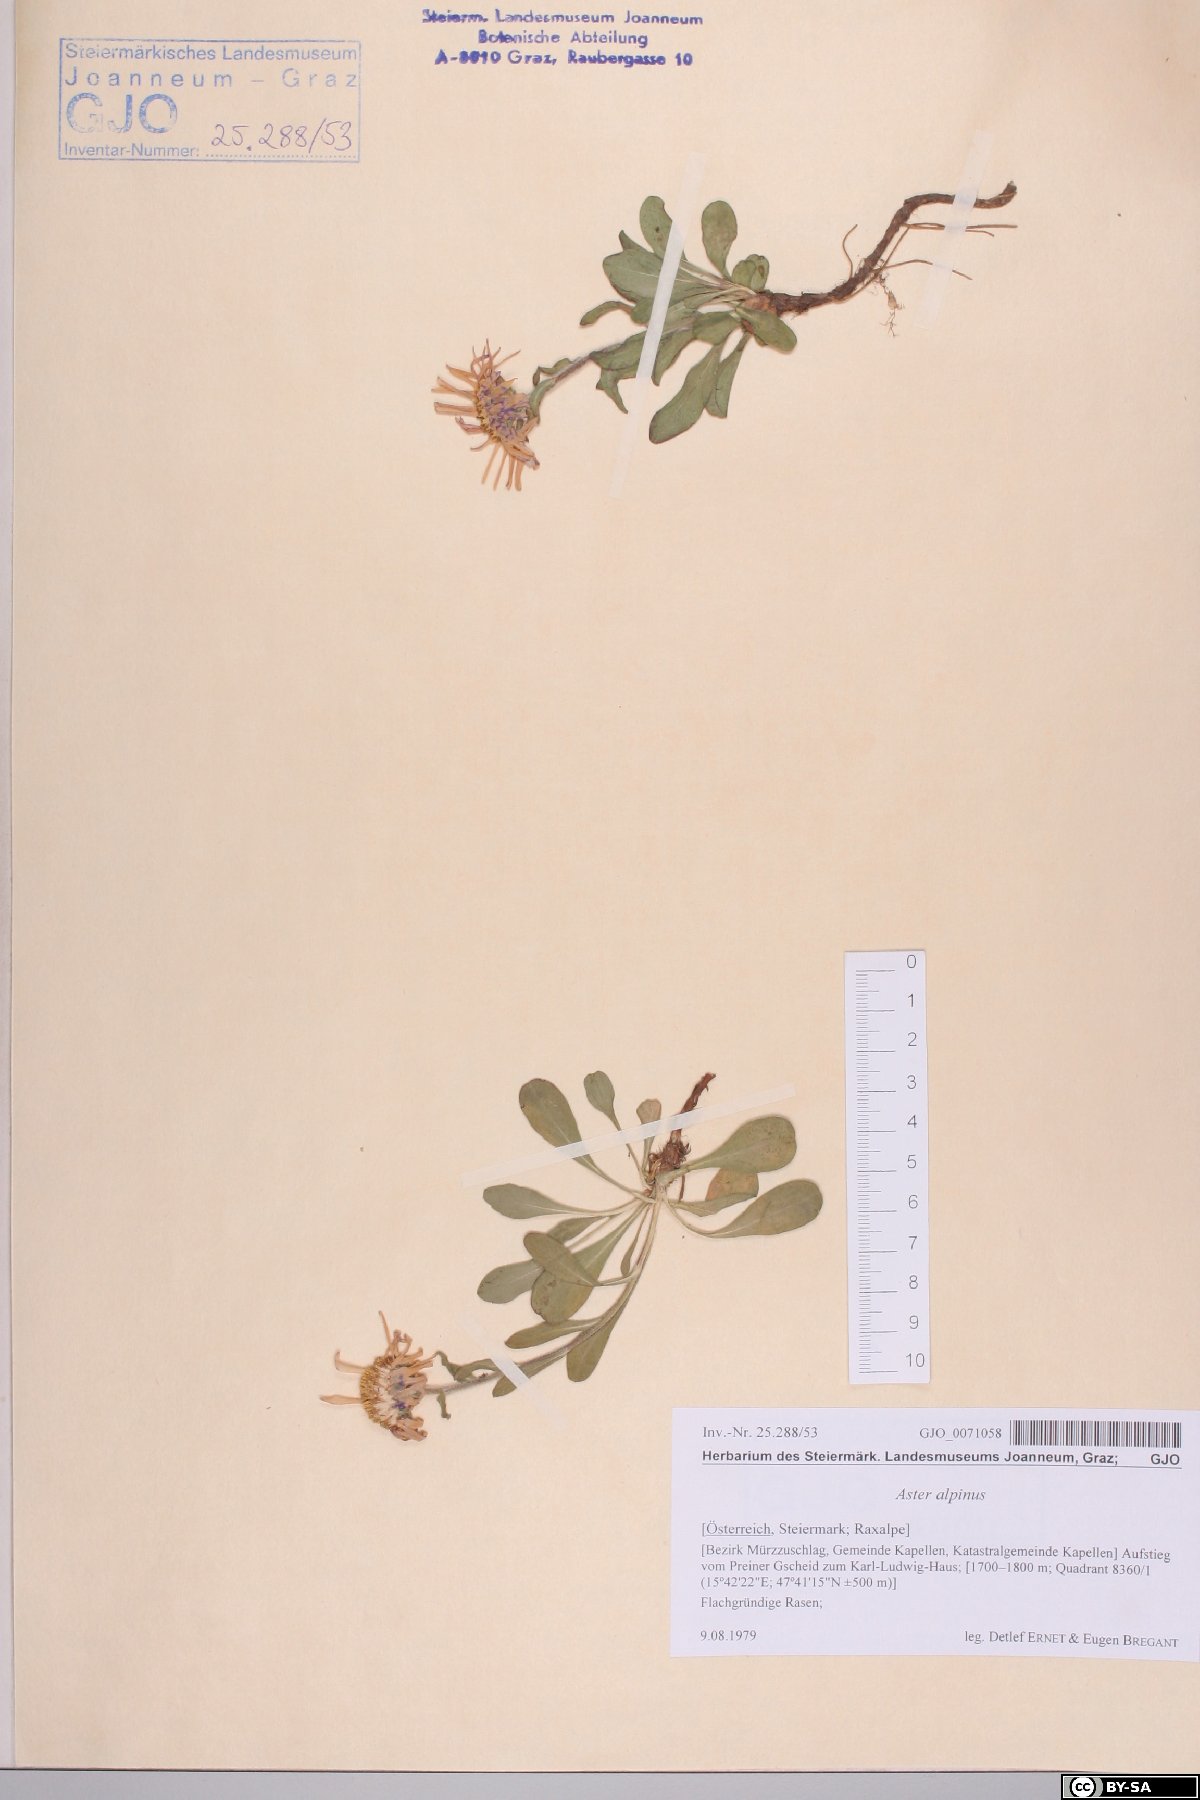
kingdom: Plantae
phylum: Tracheophyta
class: Magnoliopsida
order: Asterales
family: Asteraceae
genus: Aster
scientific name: Aster alpinus
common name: Alpine aster
